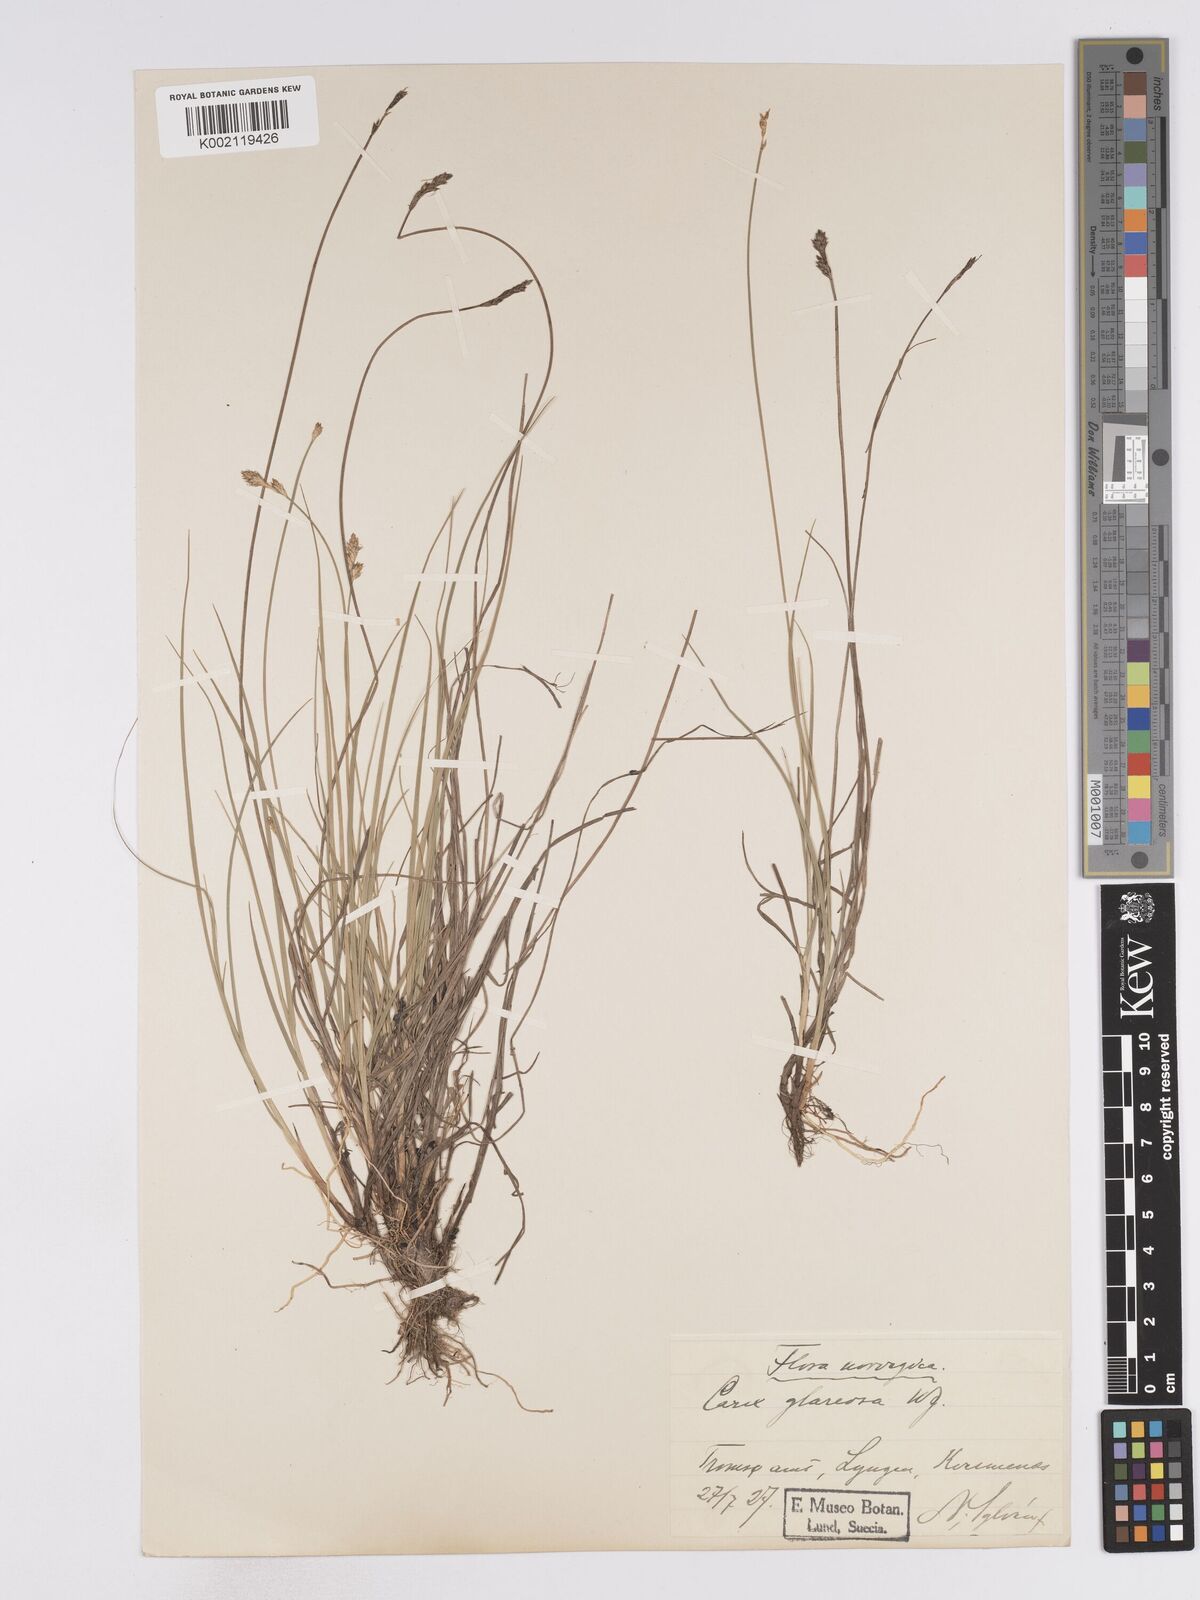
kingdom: Plantae
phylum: Tracheophyta
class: Liliopsida
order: Poales
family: Cyperaceae
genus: Carex
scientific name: Carex glareosa
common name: Clustered sedge
